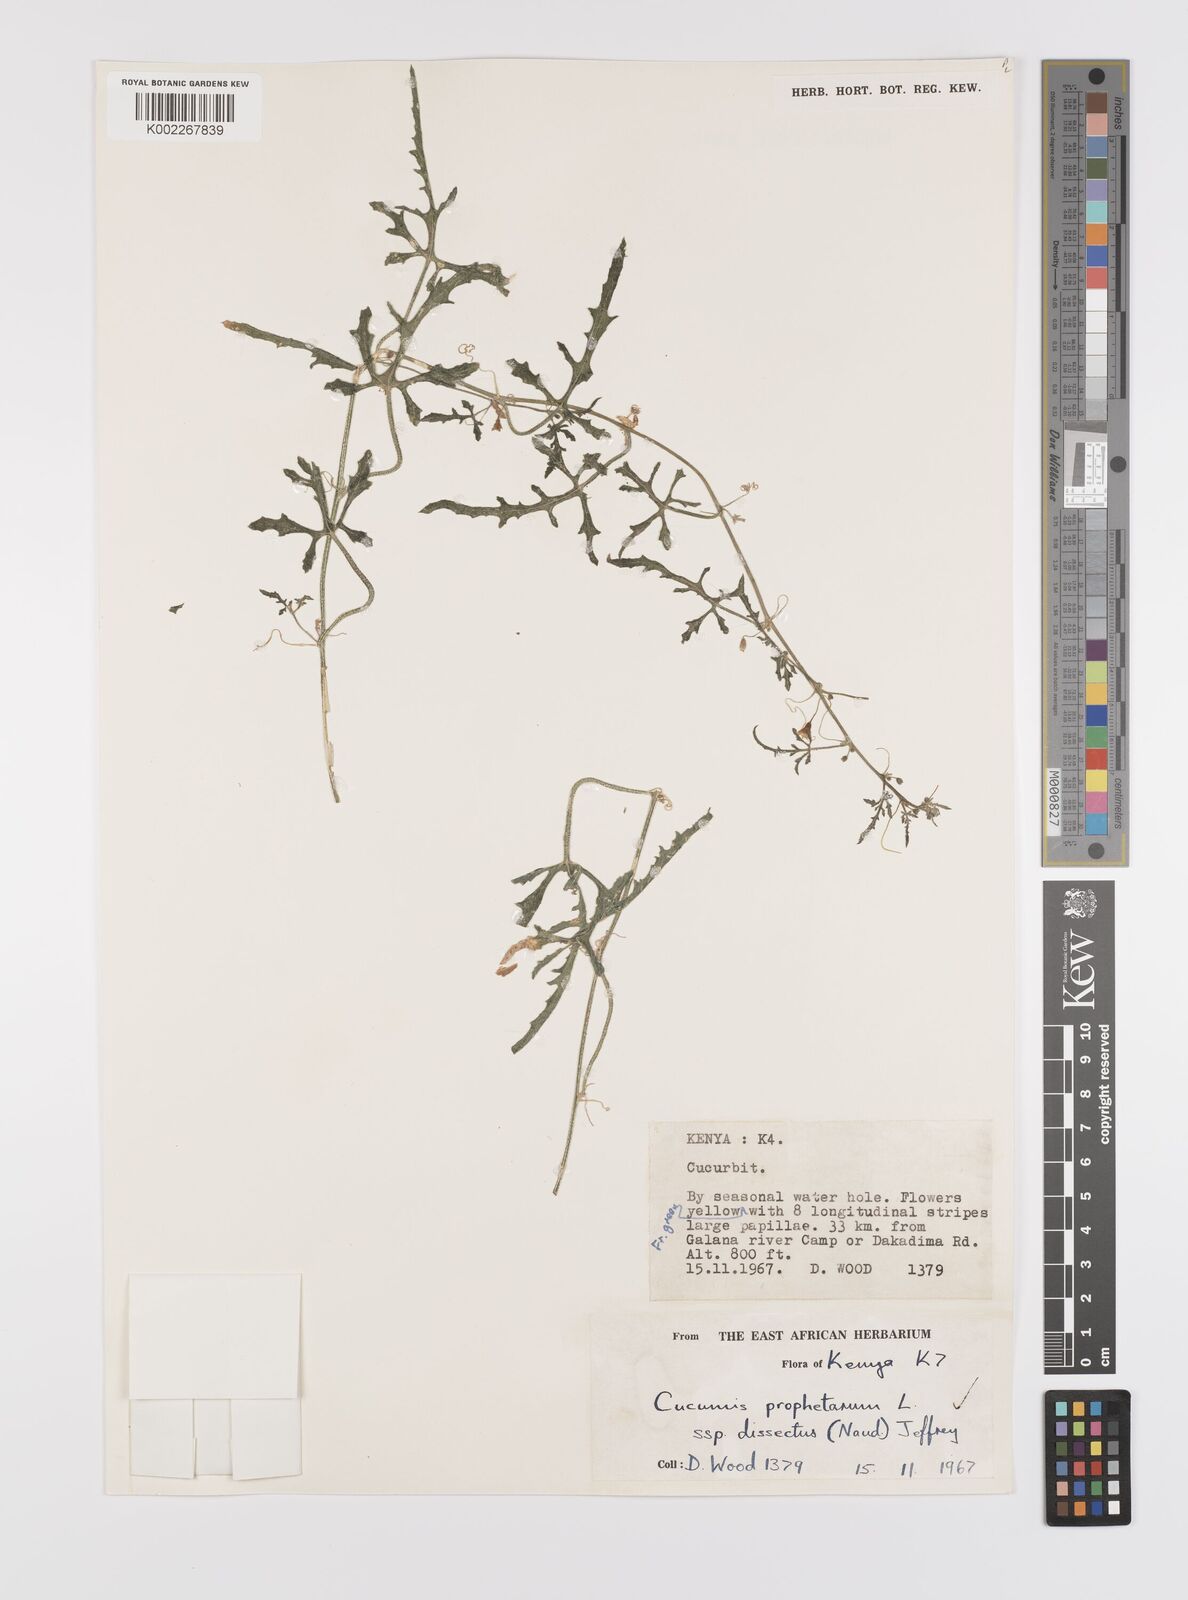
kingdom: Plantae
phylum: Tracheophyta
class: Magnoliopsida
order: Cucurbitales
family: Cucurbitaceae
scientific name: Cucurbitaceae
